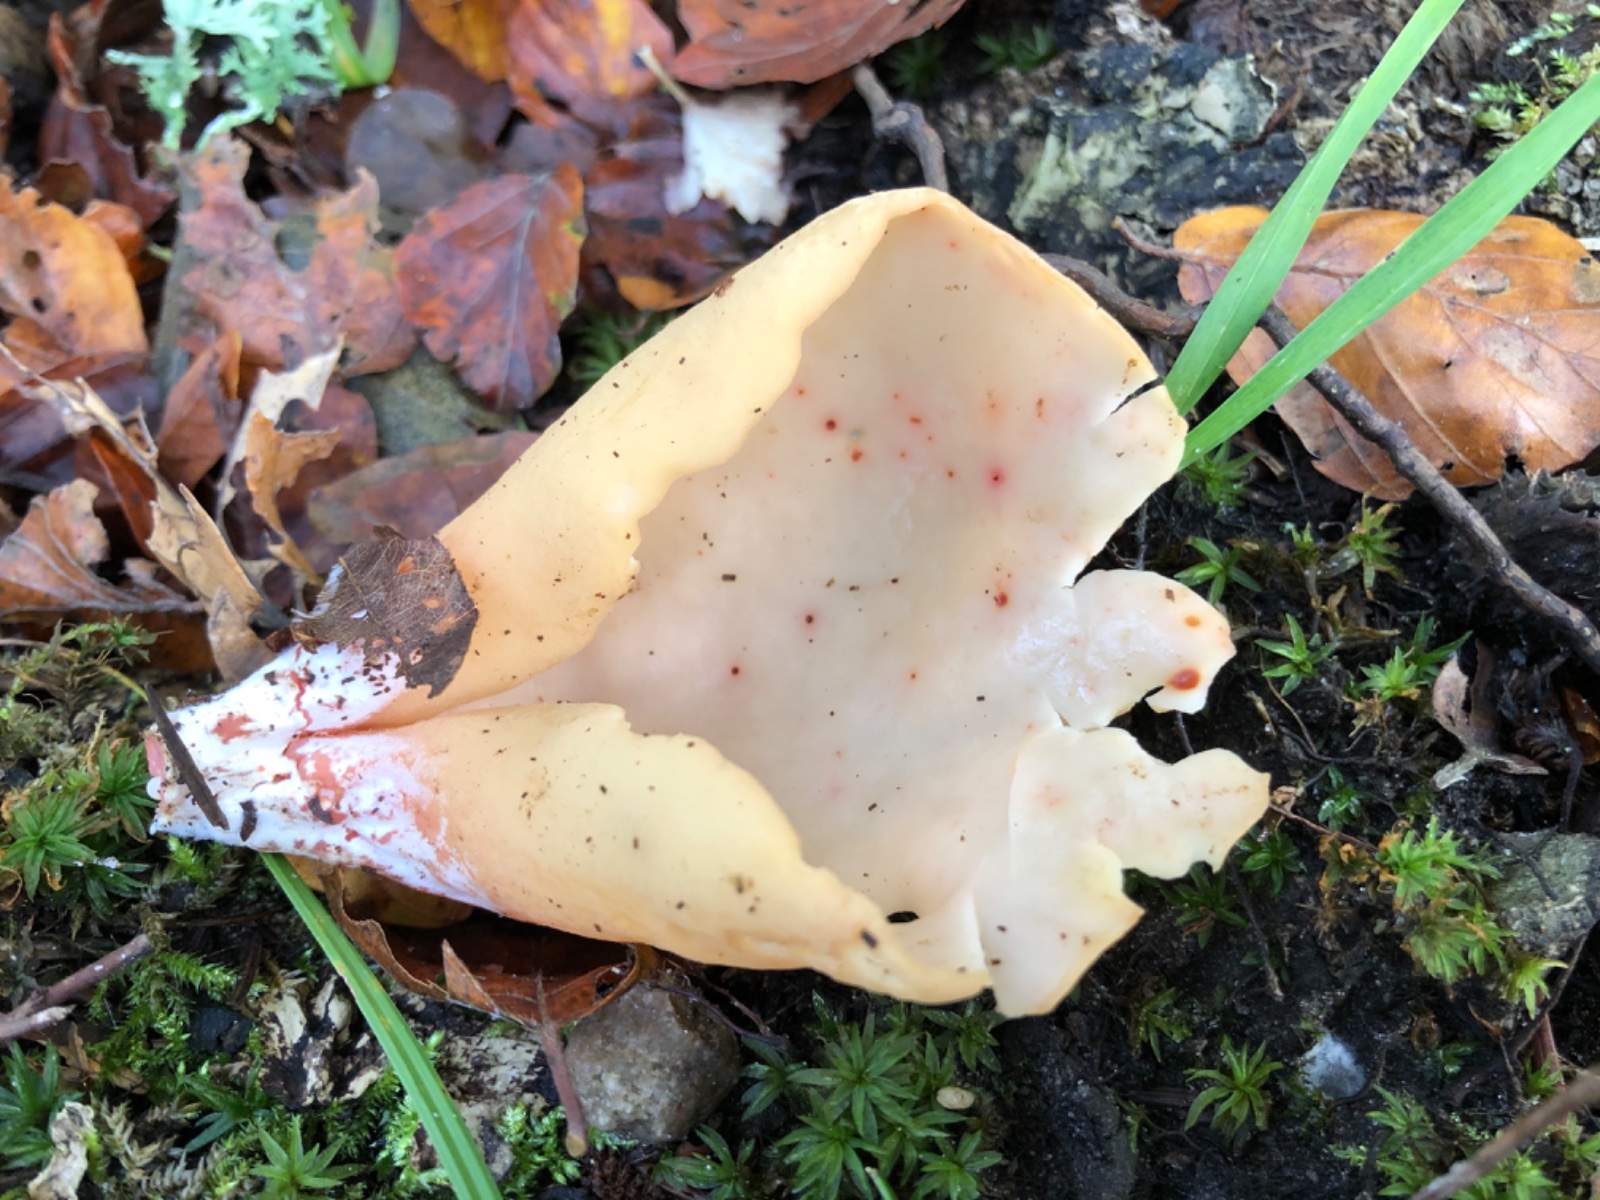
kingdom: Fungi
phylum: Ascomycota
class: Pezizomycetes
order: Pezizales
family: Otideaceae
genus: Otidea
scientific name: Otidea onotica
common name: æsel-ørebæger
